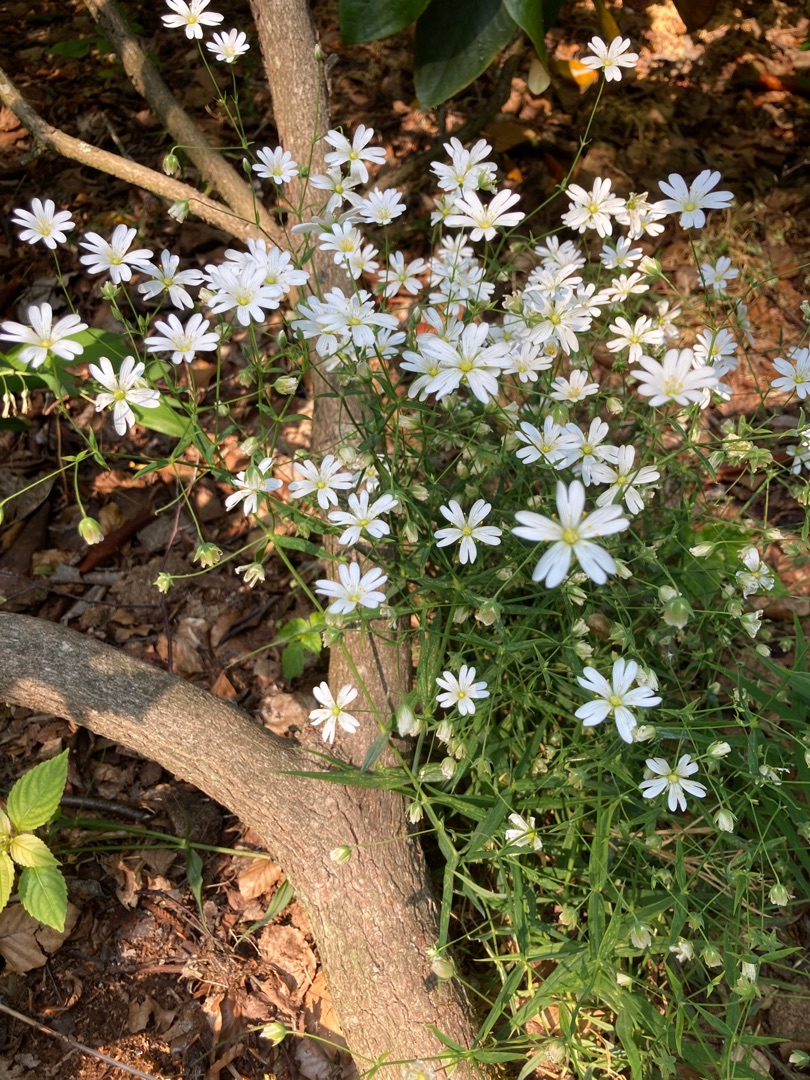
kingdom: Plantae
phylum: Tracheophyta
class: Magnoliopsida
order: Caryophyllales
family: Caryophyllaceae
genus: Rabelera
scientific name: Rabelera holostea
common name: Stor fladstjerne
